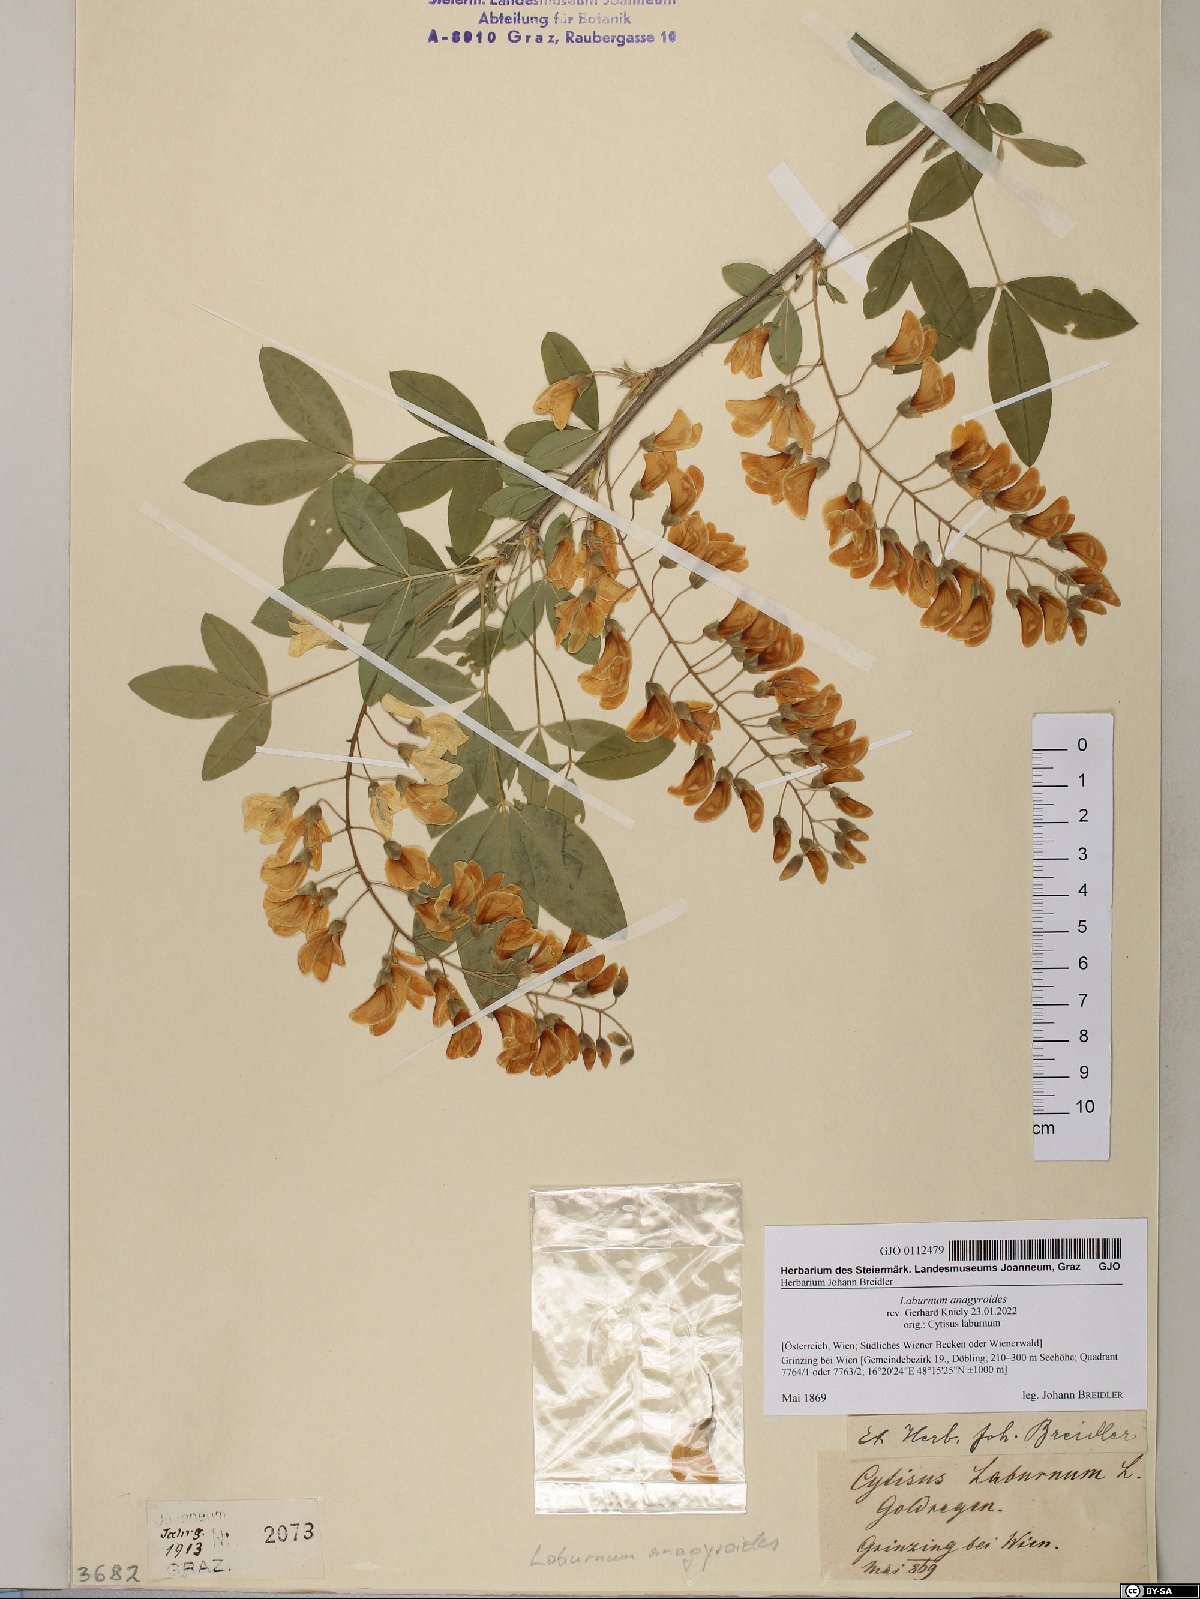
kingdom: Plantae
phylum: Tracheophyta
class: Magnoliopsida
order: Fabales
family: Fabaceae
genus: Laburnum
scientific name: Laburnum anagyroides
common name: Laburnum
